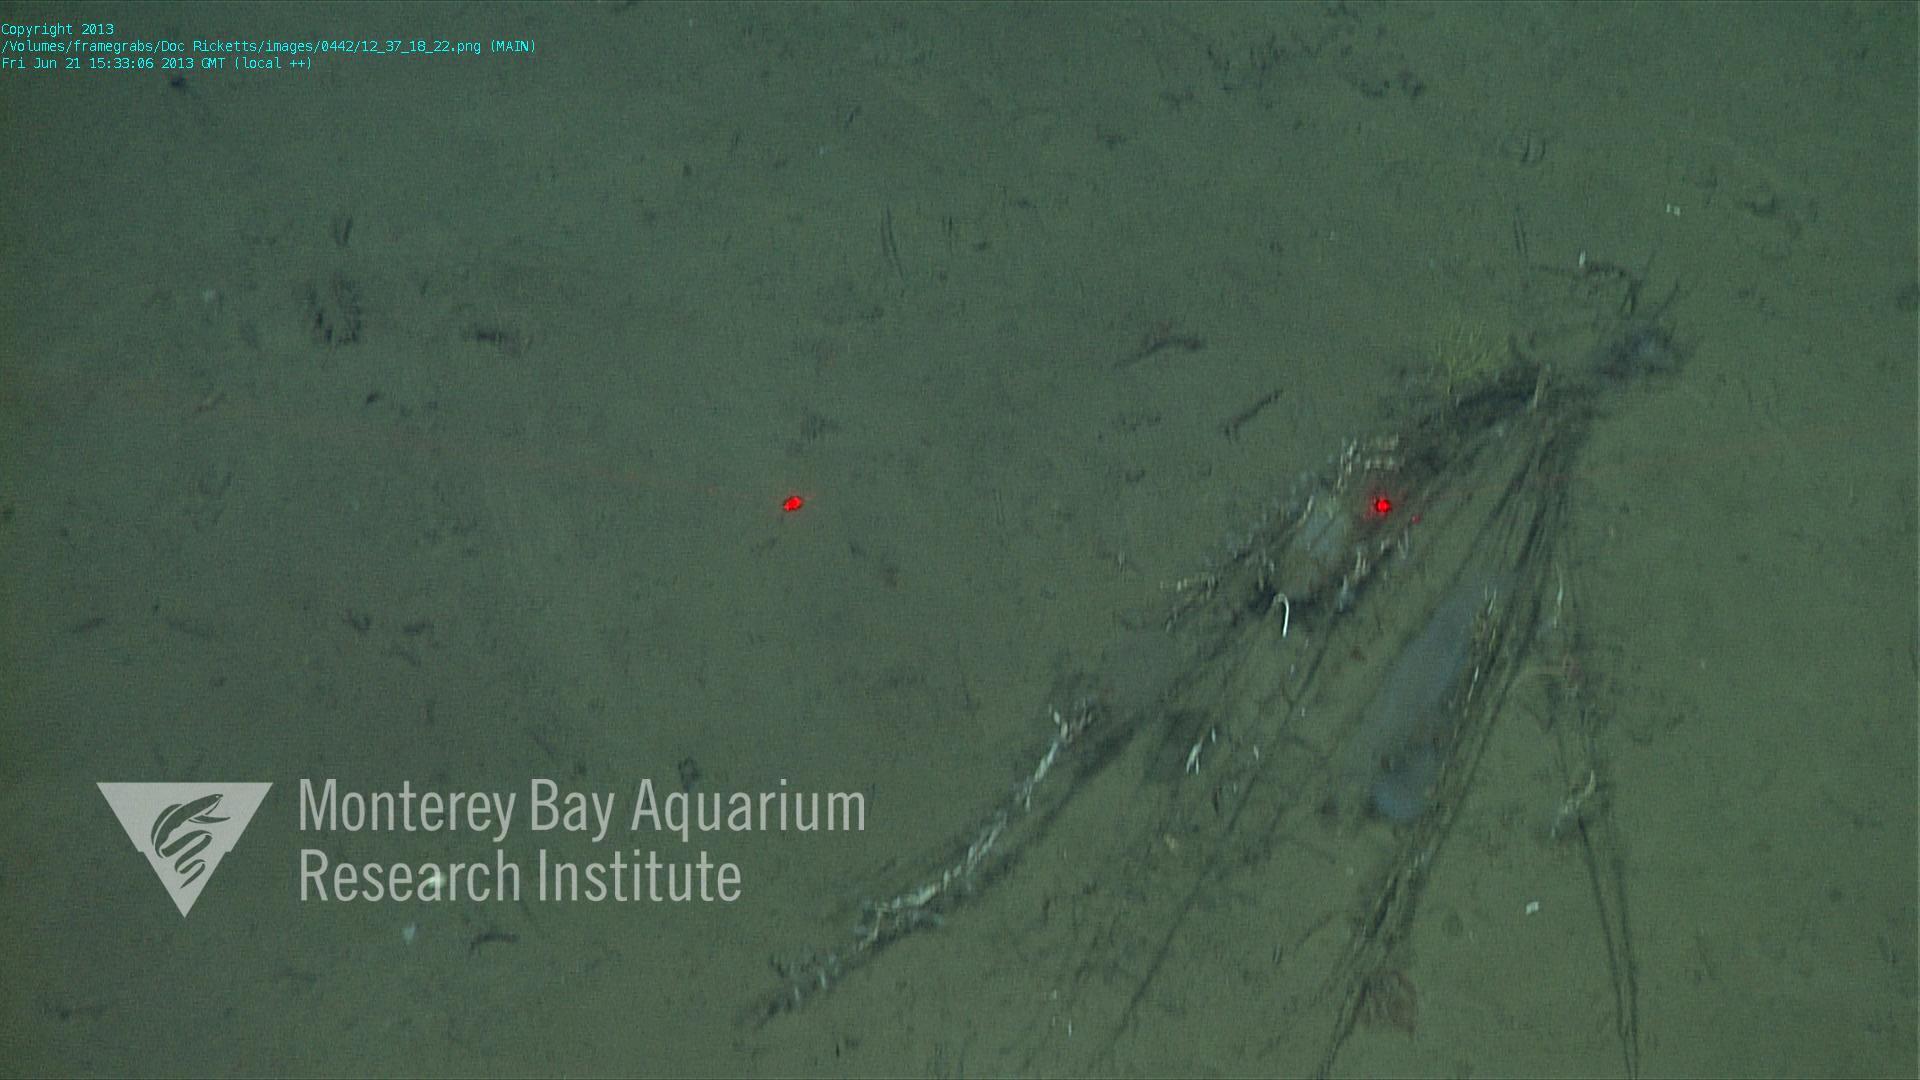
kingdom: Animalia
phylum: Porifera
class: Hexactinellida
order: Lyssacinosida
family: Rossellidae
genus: Bathydorus
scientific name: Bathydorus spinosus
